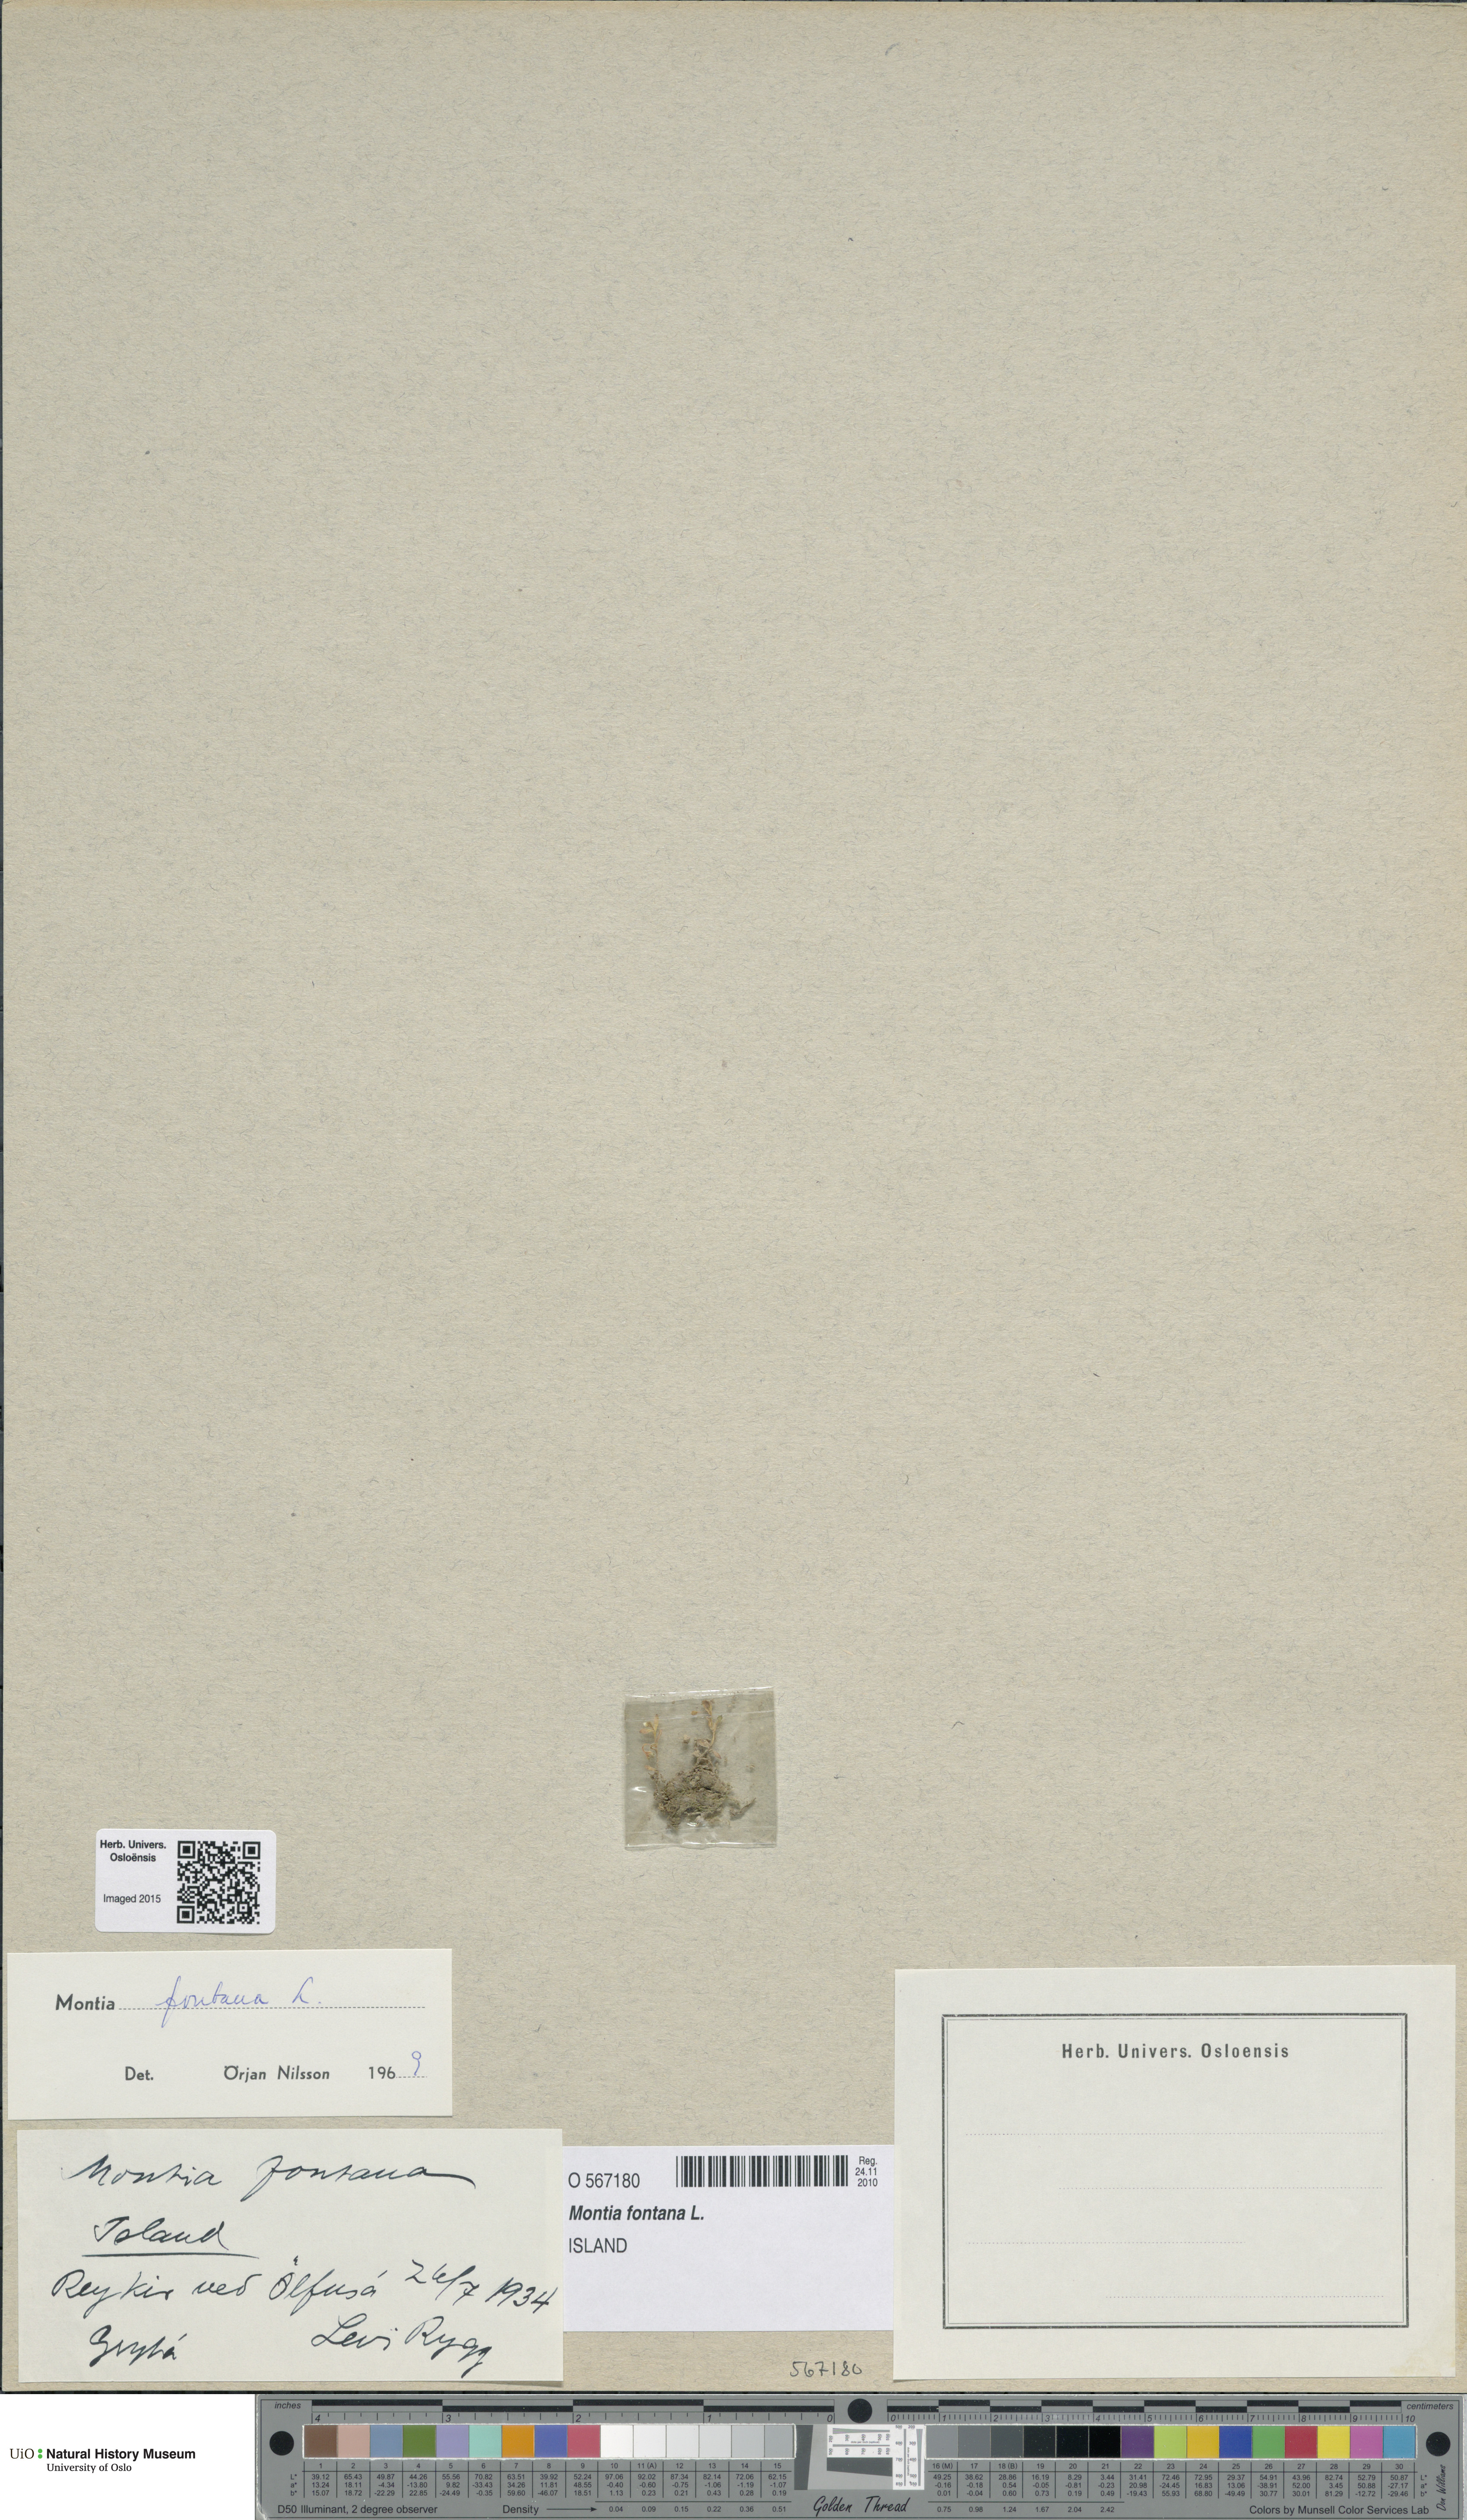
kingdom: Plantae
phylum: Tracheophyta
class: Magnoliopsida
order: Caryophyllales
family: Montiaceae
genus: Montia
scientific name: Montia fontana
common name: Blinks
